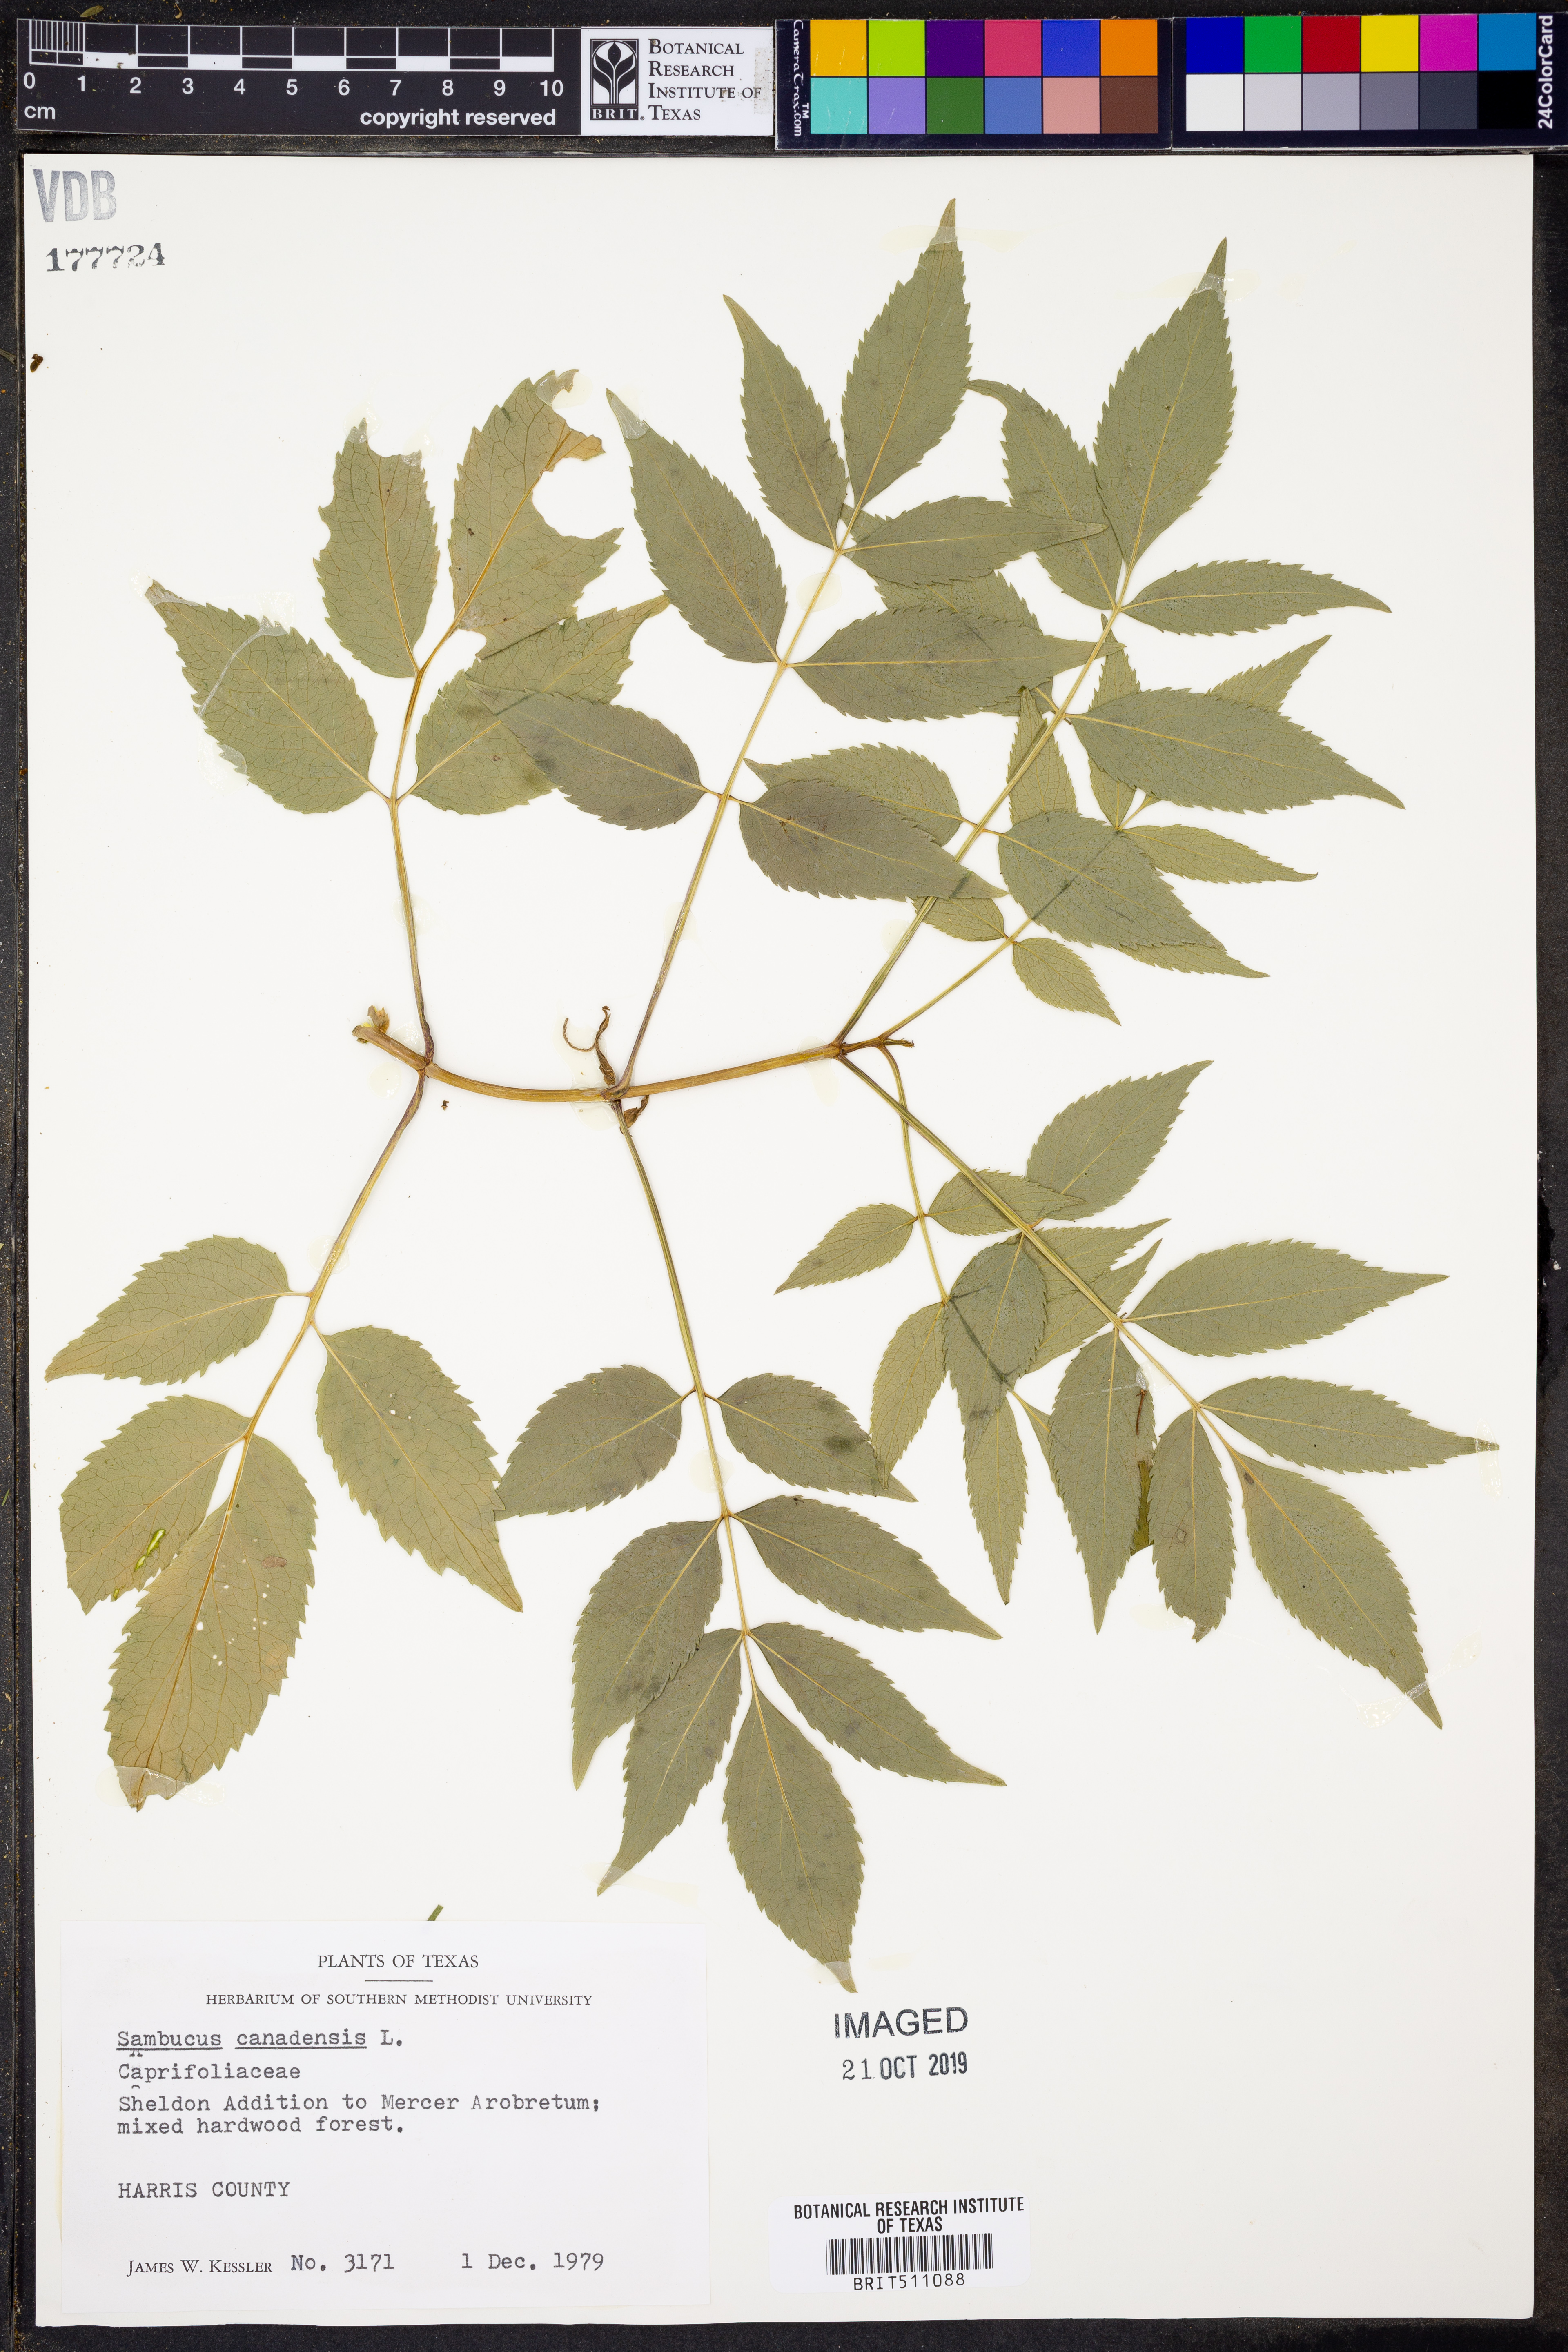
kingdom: Plantae
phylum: Tracheophyta
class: Magnoliopsida
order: Dipsacales
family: Viburnaceae
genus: Sambucus
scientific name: Sambucus canadensis
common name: American elder
